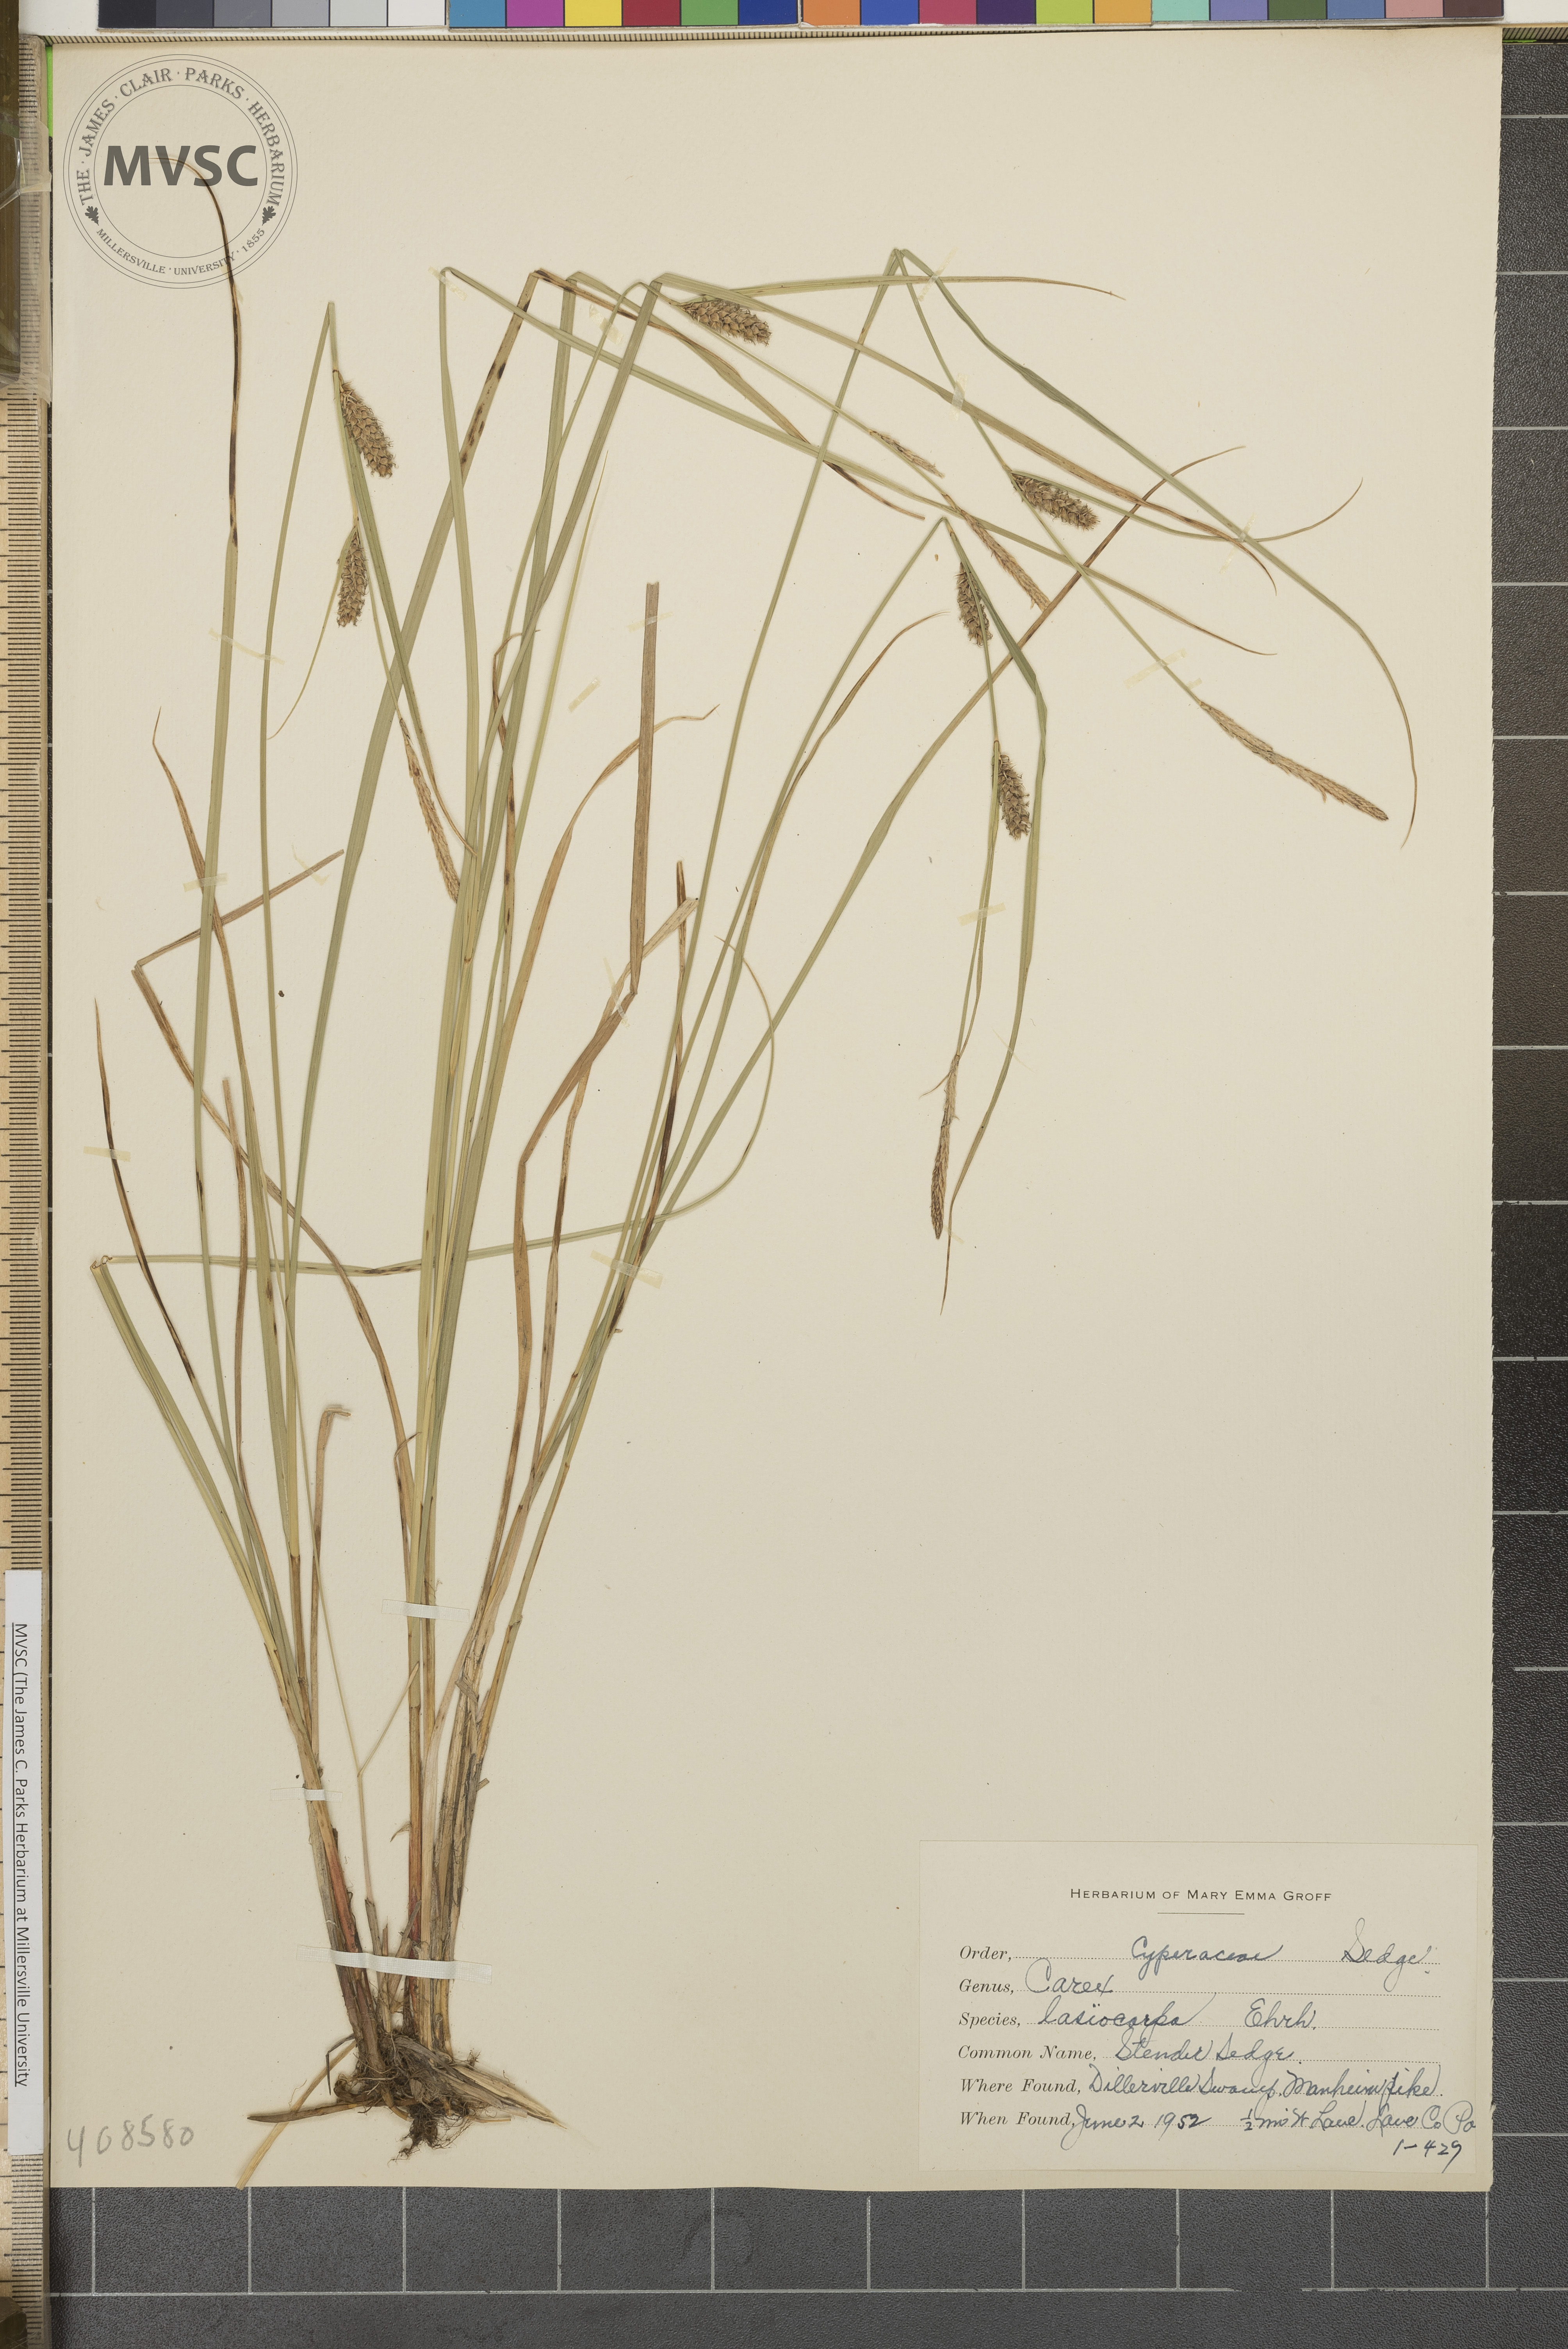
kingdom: Plantae
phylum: Tracheophyta
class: Liliopsida
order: Poales
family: Cyperaceae
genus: Carex
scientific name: Carex lasiocarpa
